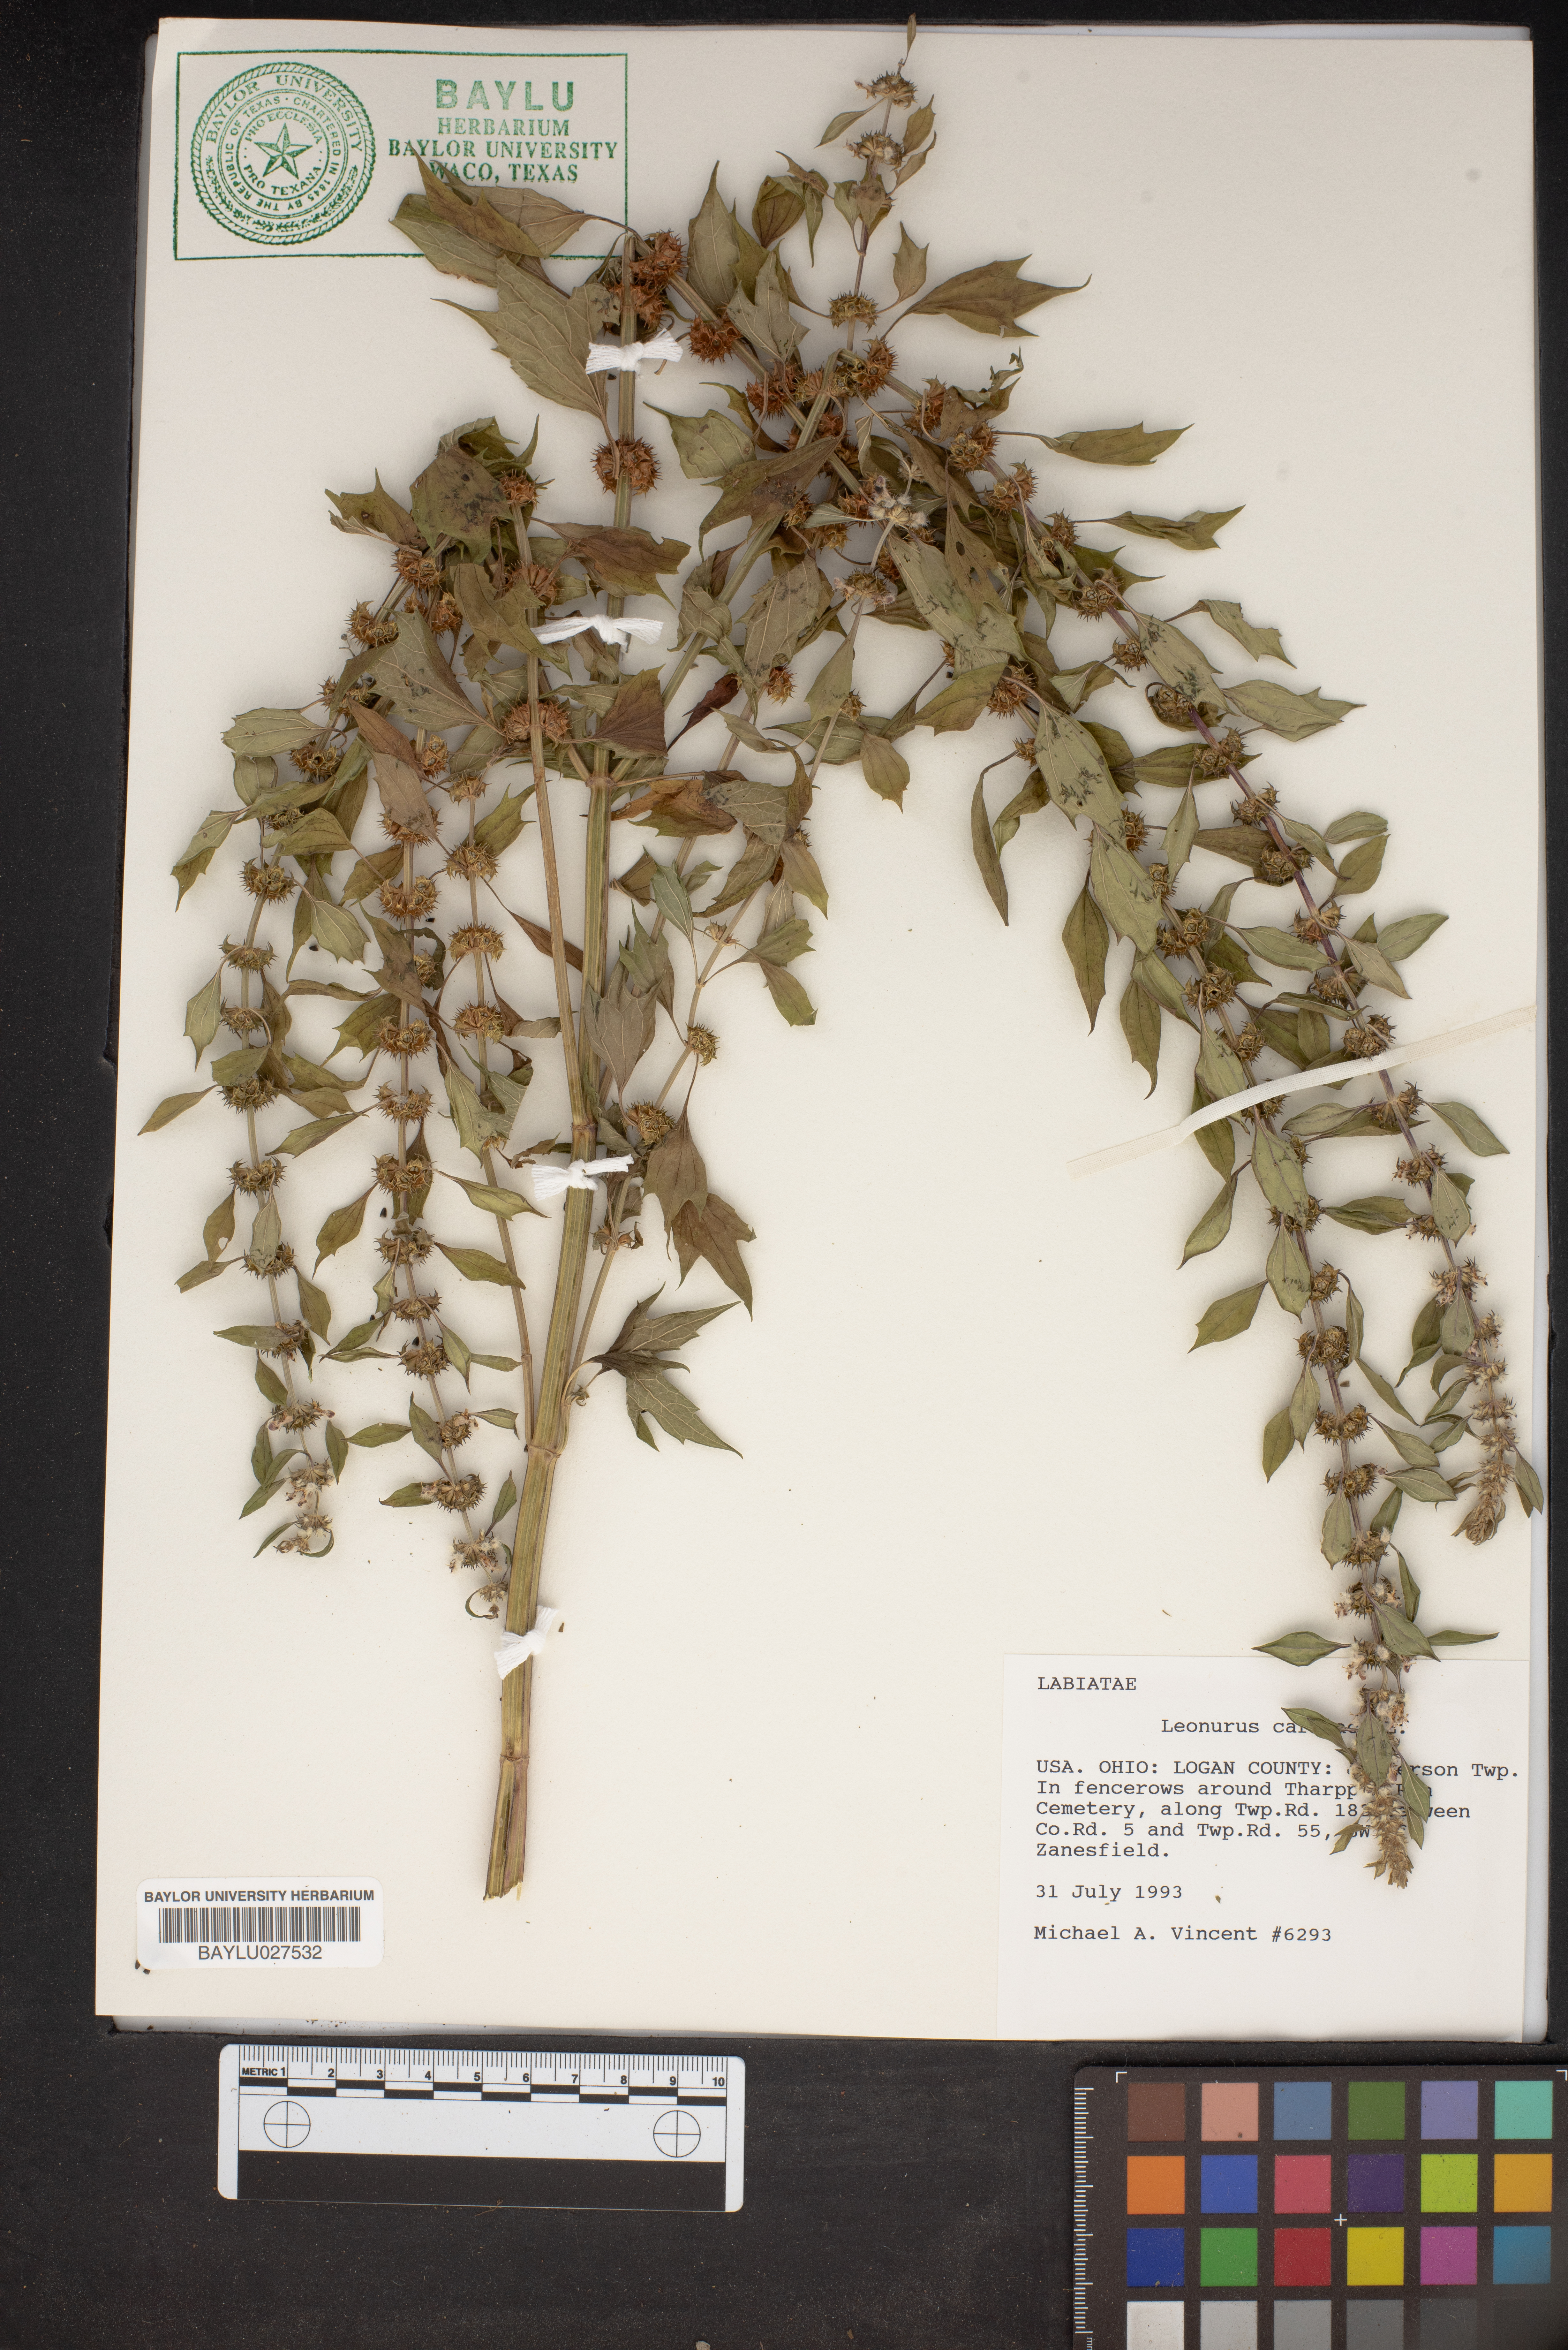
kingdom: Plantae
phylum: Tracheophyta
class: Magnoliopsida
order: Lamiales
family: Lamiaceae
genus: Leonurus
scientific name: Leonurus cardiaca
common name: Motherwort
